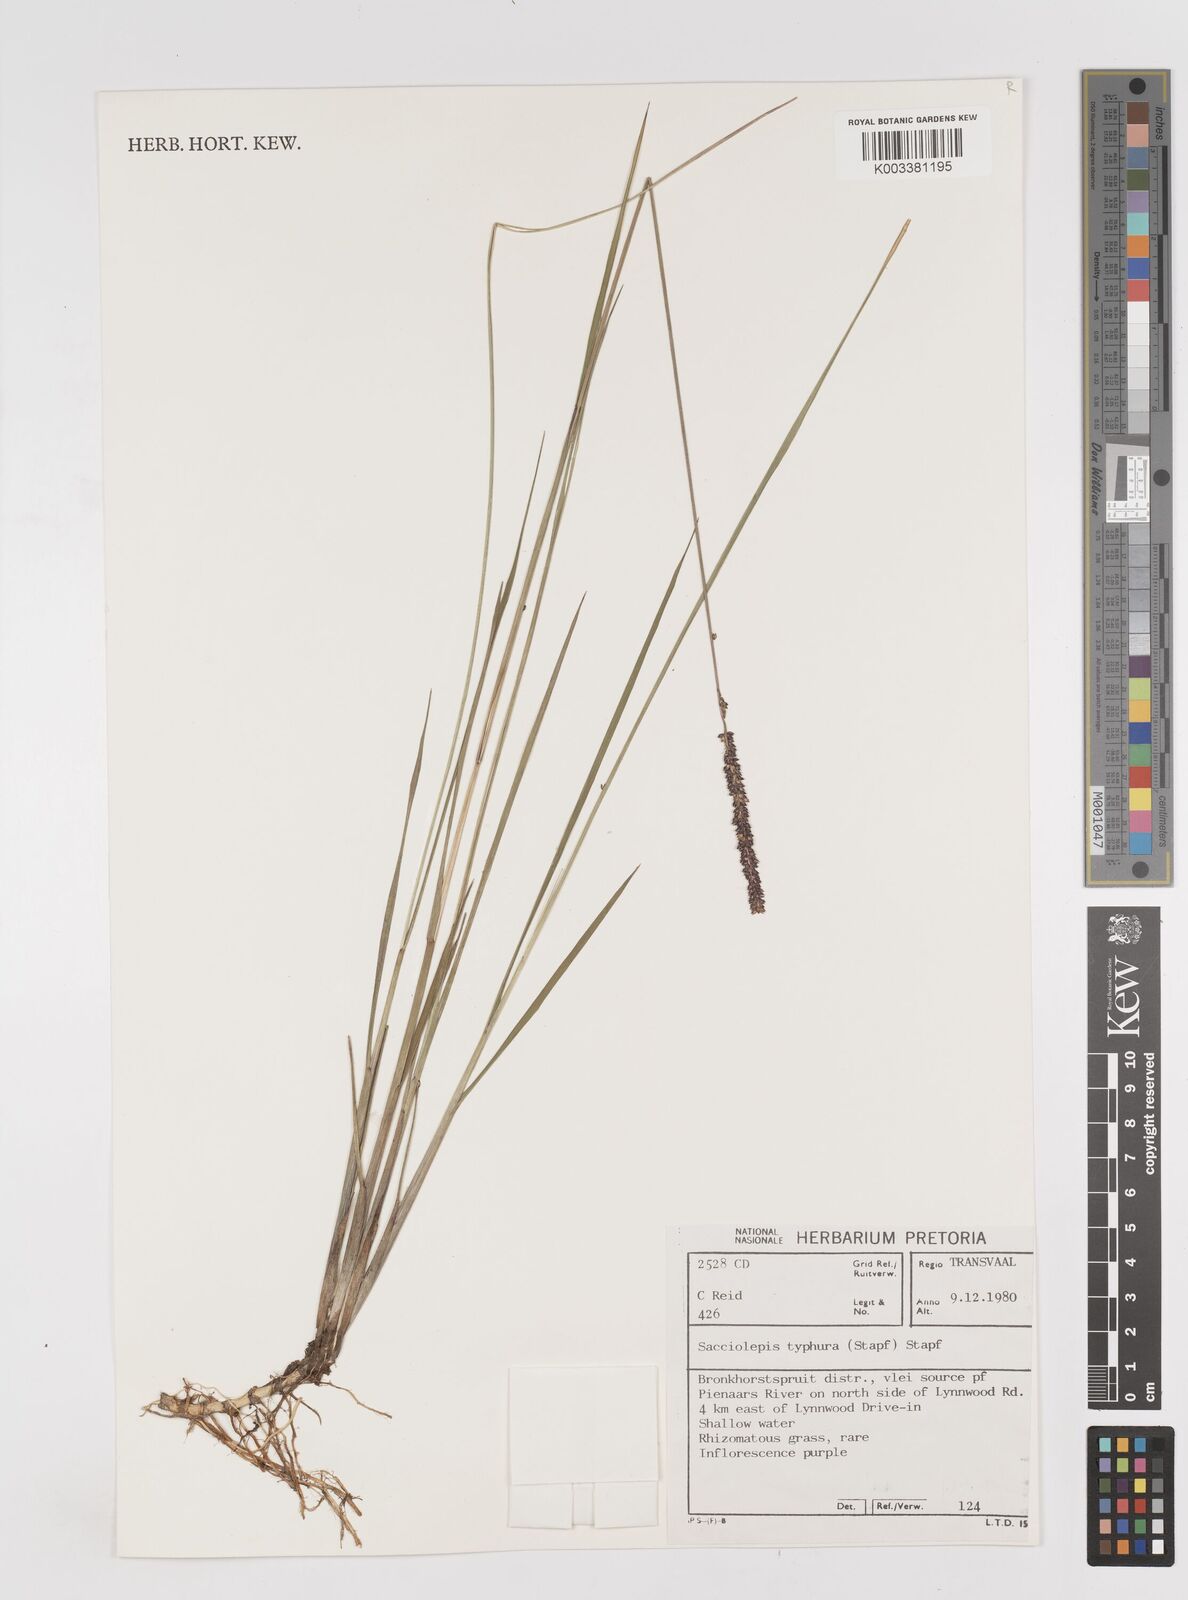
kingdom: Plantae
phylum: Tracheophyta
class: Liliopsida
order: Poales
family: Poaceae
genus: Sacciolepis
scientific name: Sacciolepis chevalieri
